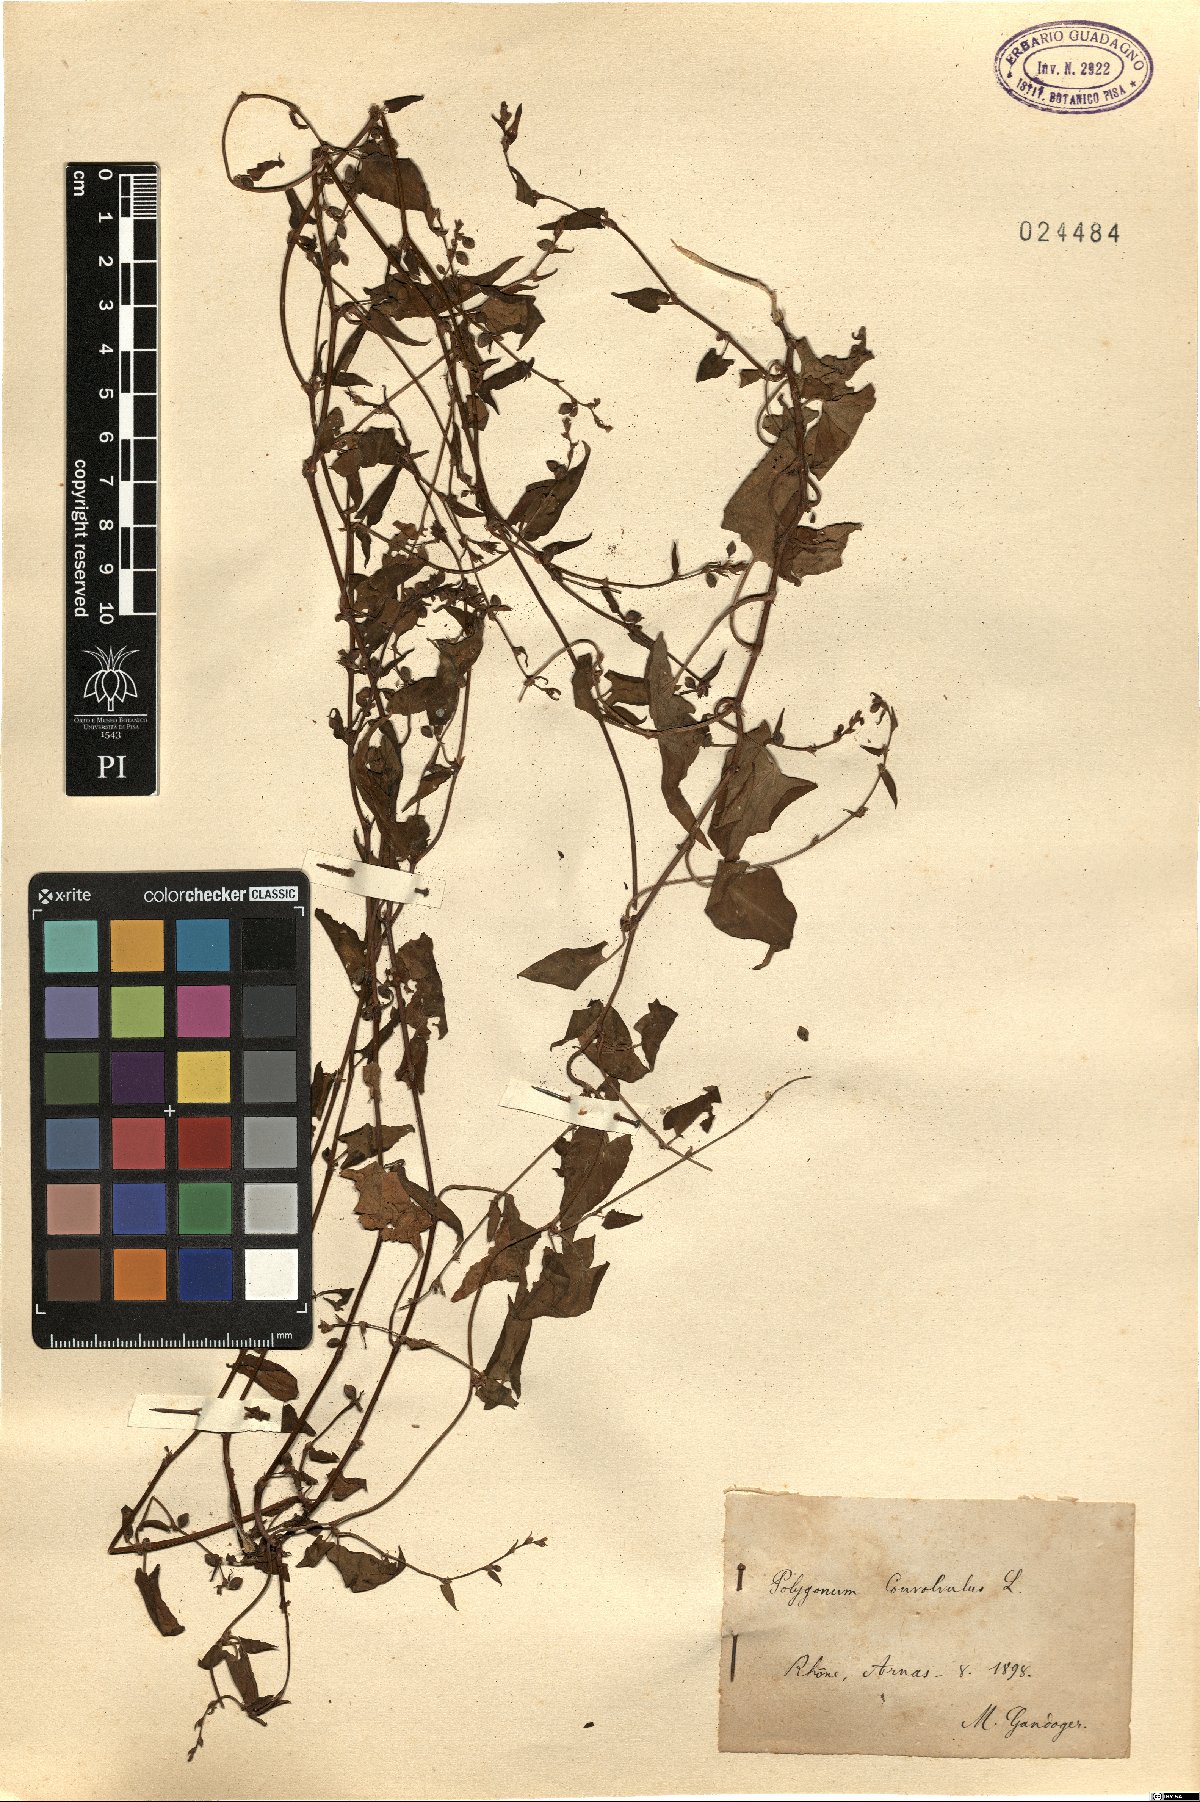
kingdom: Plantae
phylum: Tracheophyta
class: Magnoliopsida
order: Caryophyllales
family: Polygonaceae
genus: Fallopia
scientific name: Fallopia convolvulus
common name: Black bindweed
